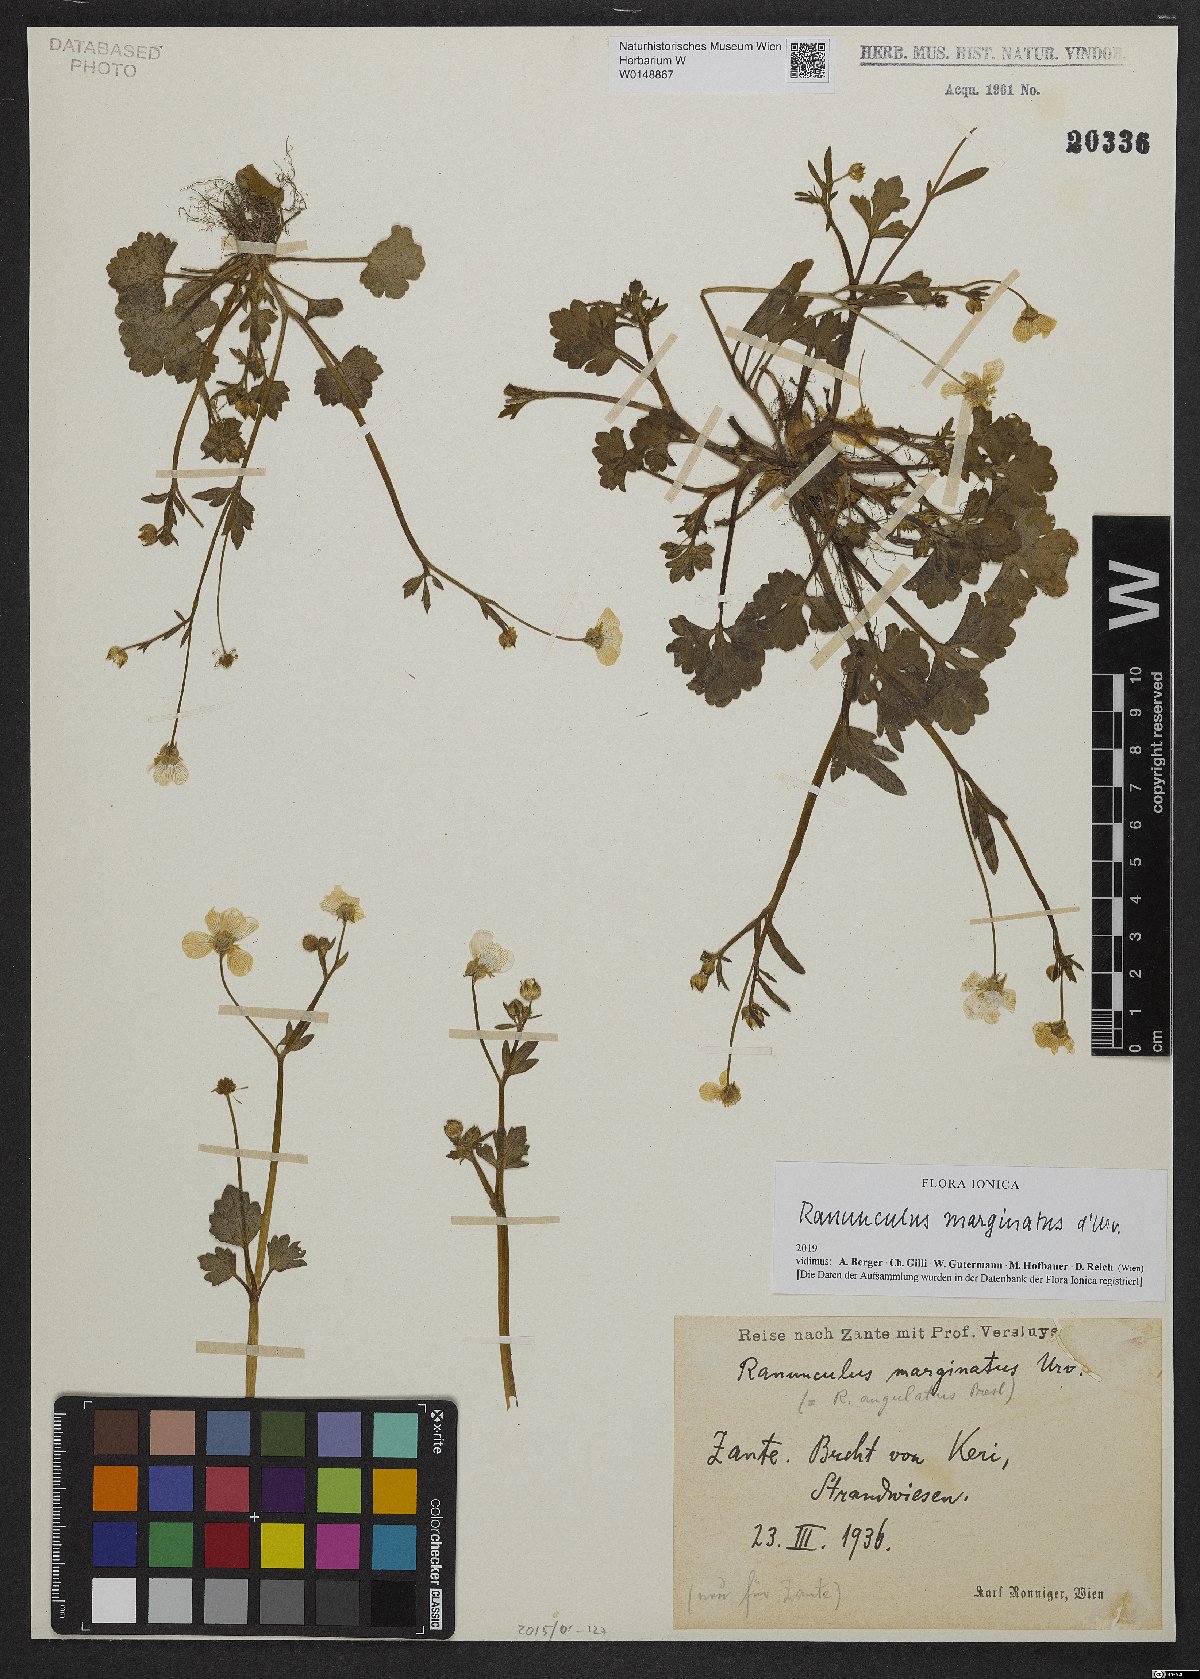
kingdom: Plantae
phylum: Tracheophyta
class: Magnoliopsida
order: Ranunculales
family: Ranunculaceae
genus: Ranunculus
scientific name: Ranunculus marginatus
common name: St. martin's buttercup
